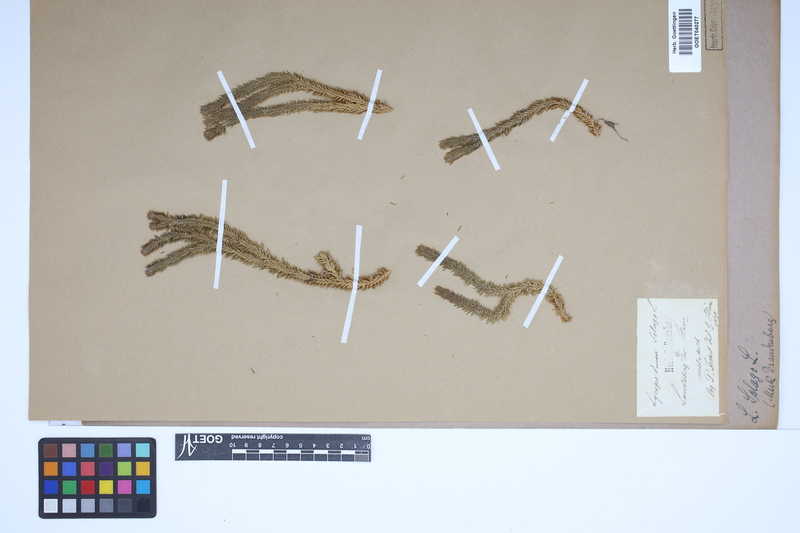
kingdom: Plantae
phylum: Tracheophyta
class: Lycopodiopsida
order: Lycopodiales
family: Lycopodiaceae
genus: Huperzia
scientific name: Huperzia selago
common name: Northern firmoss
